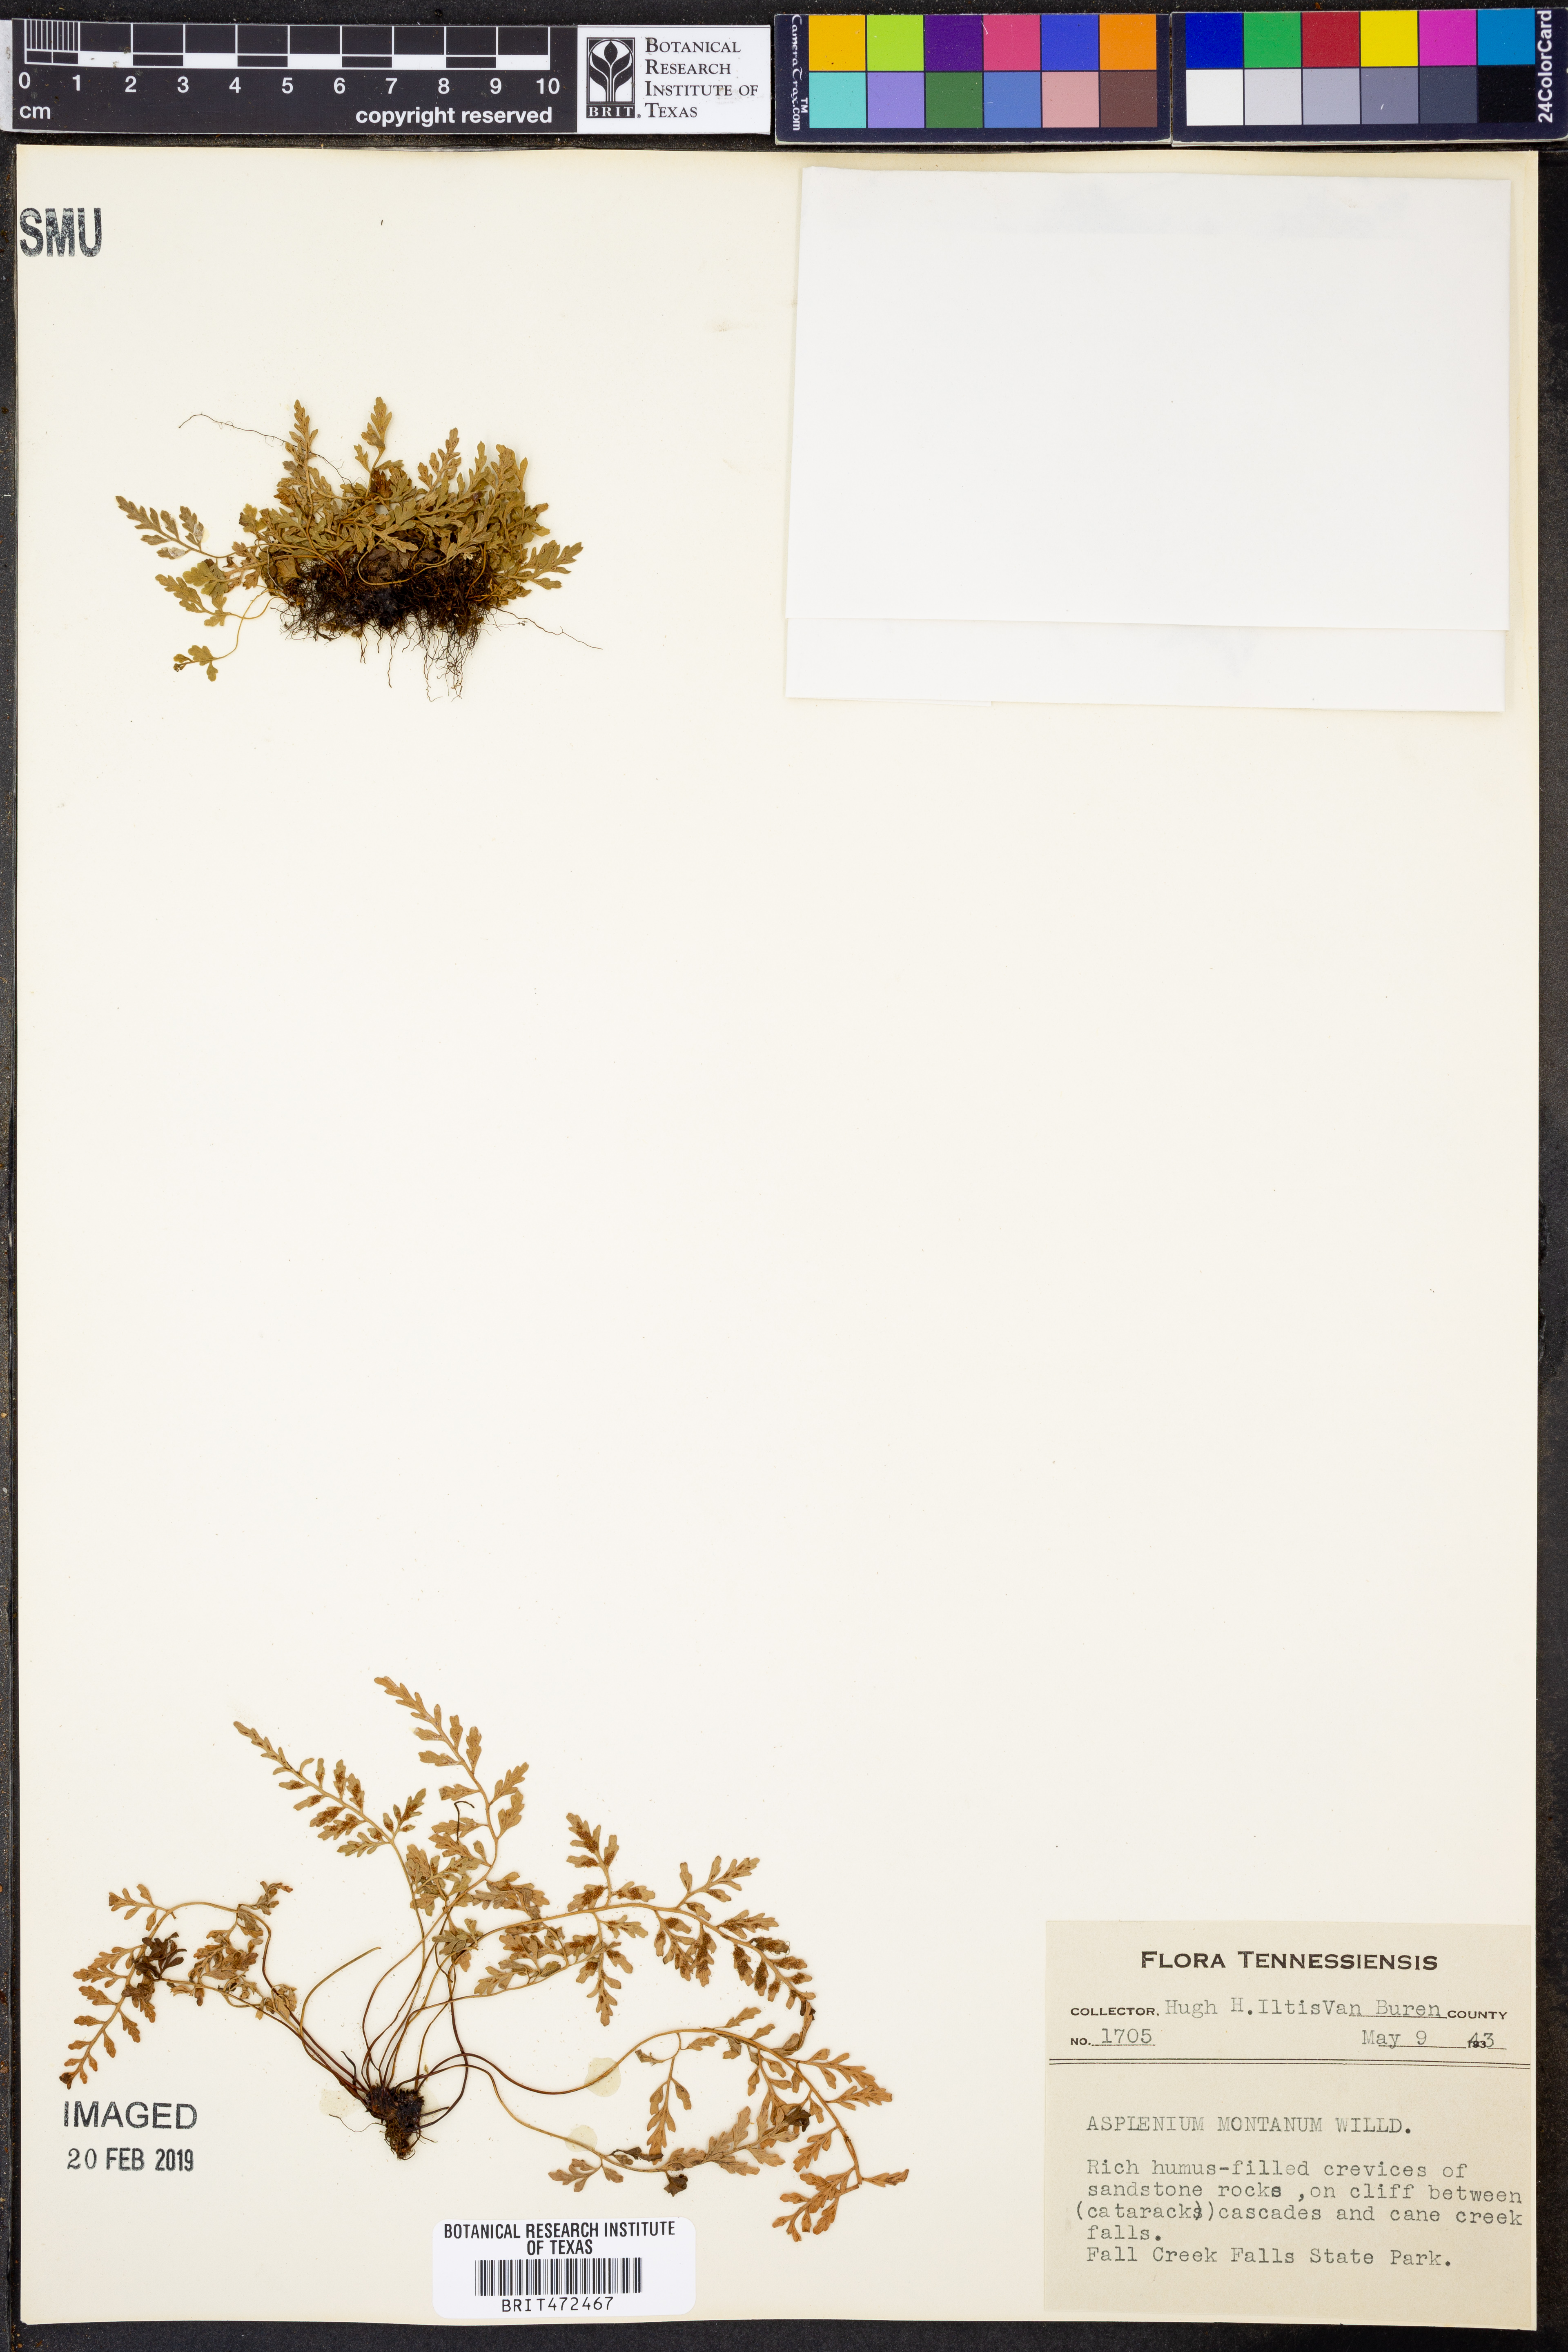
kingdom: Plantae
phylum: Tracheophyta
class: Polypodiopsida
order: Polypodiales
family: Aspleniaceae
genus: Asplenium
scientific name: Asplenium montanum
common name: Mountain spleenwort
